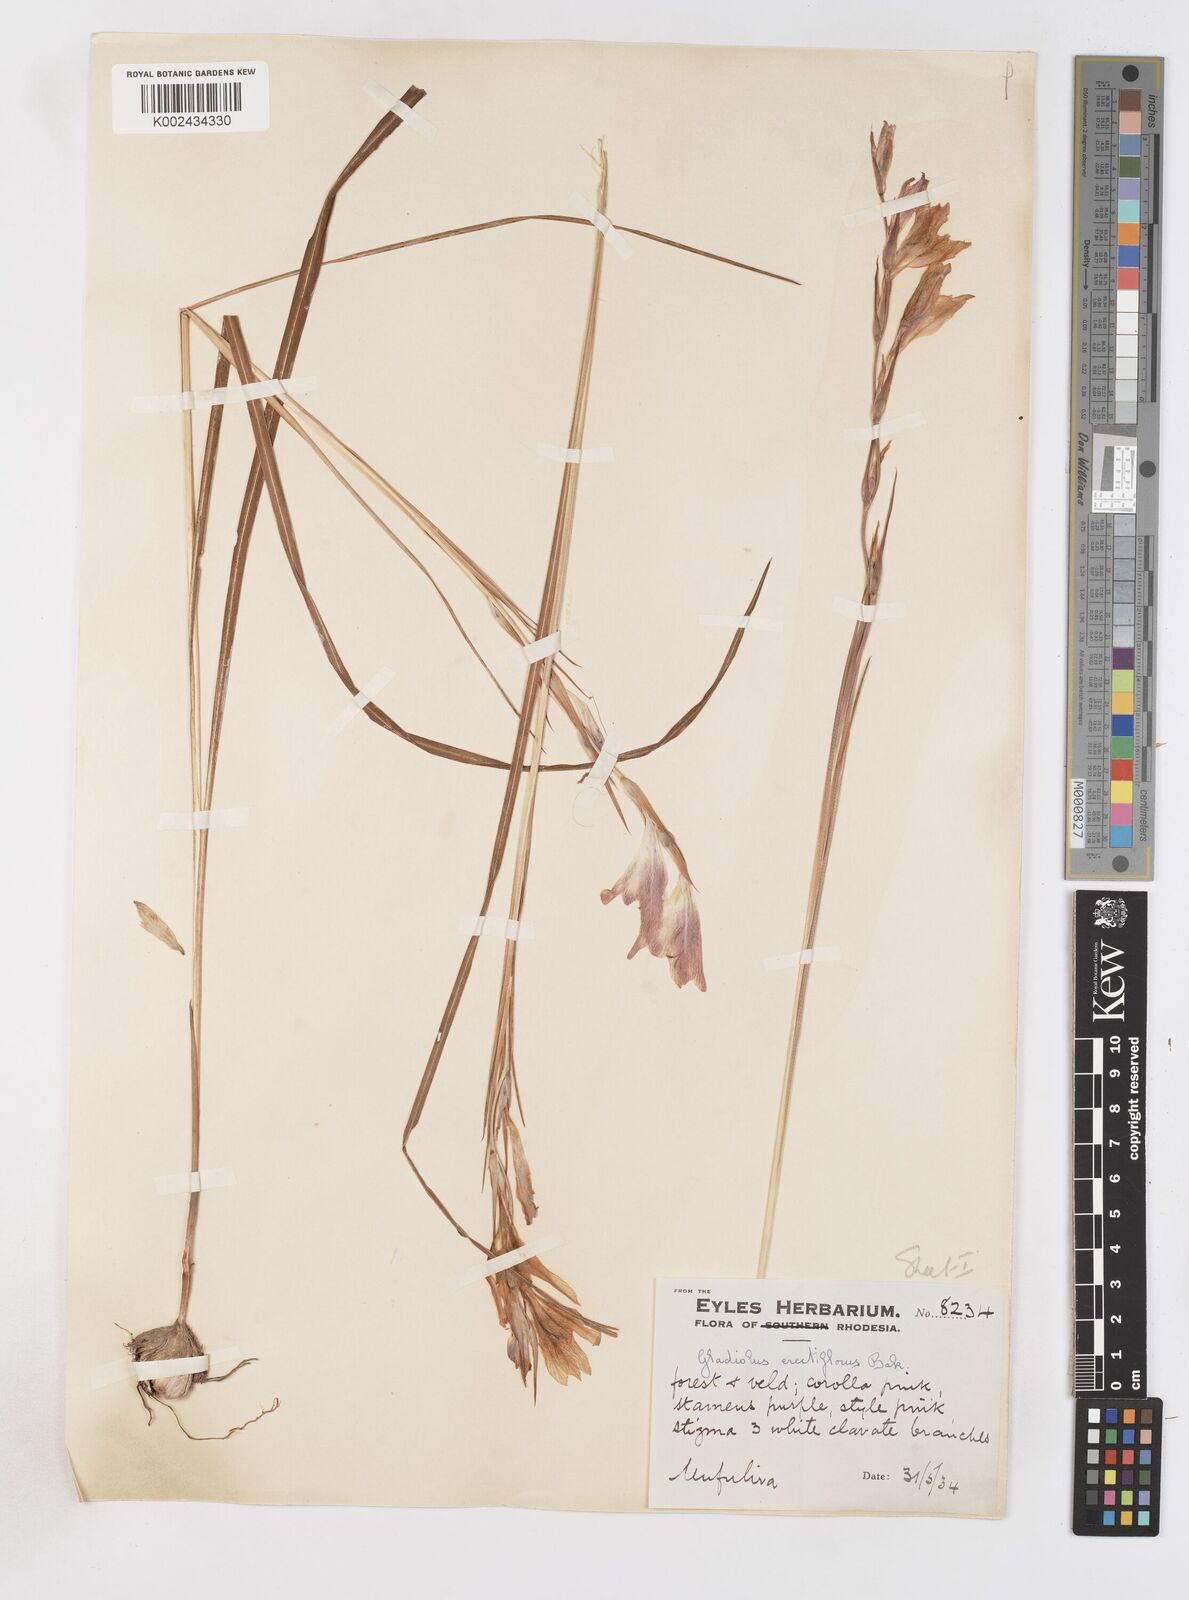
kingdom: Plantae
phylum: Tracheophyta
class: Liliopsida
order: Asparagales
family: Iridaceae
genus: Gladiolus
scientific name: Gladiolus erectiflorus
